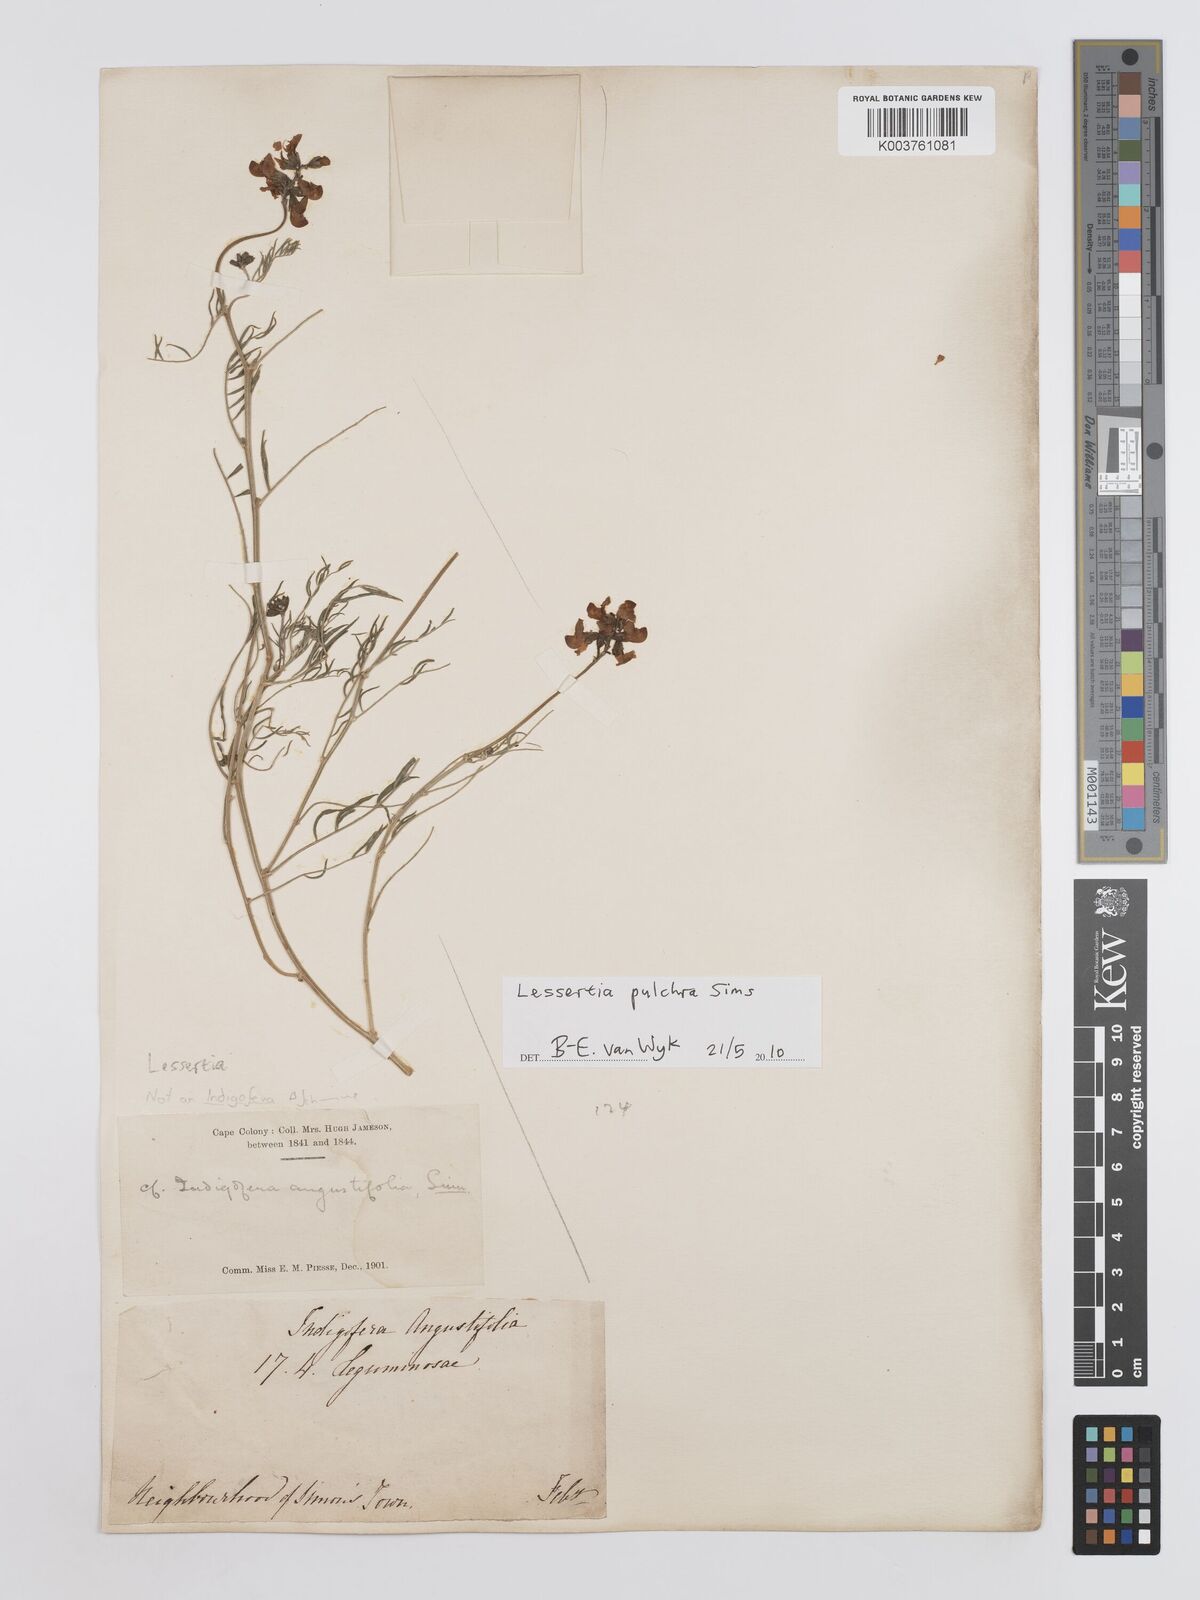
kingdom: Plantae
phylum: Tracheophyta
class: Magnoliopsida
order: Fabales
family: Fabaceae
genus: Lessertia
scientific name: Lessertia capensis
